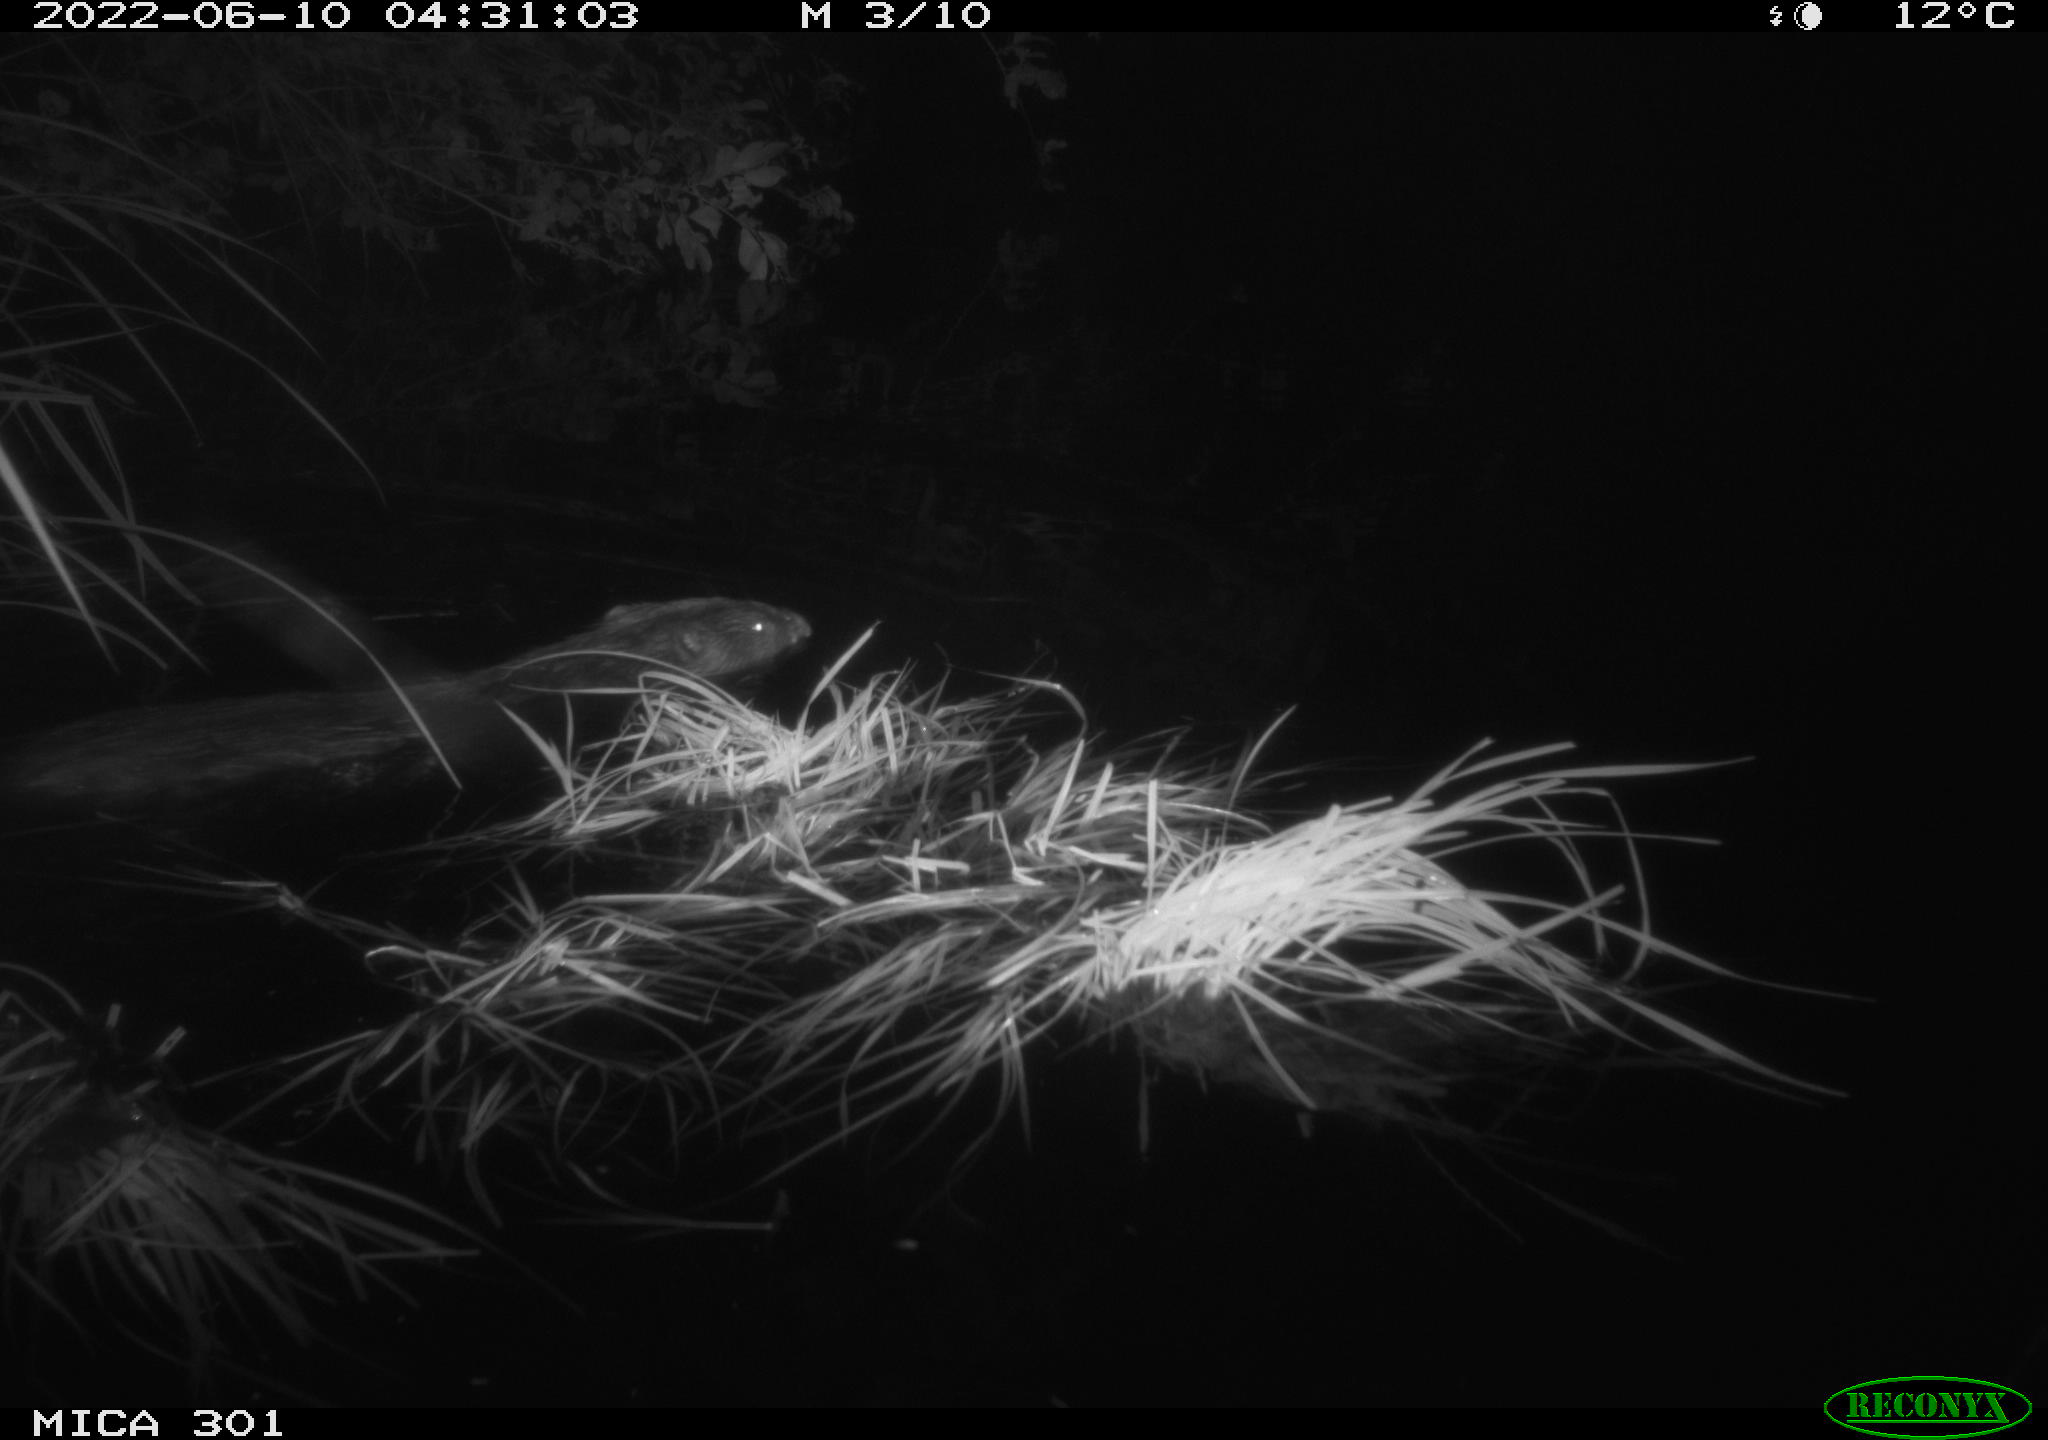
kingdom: Animalia
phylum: Chordata
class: Mammalia
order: Rodentia
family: Castoridae
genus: Castor
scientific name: Castor fiber
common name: Eurasian beaver
